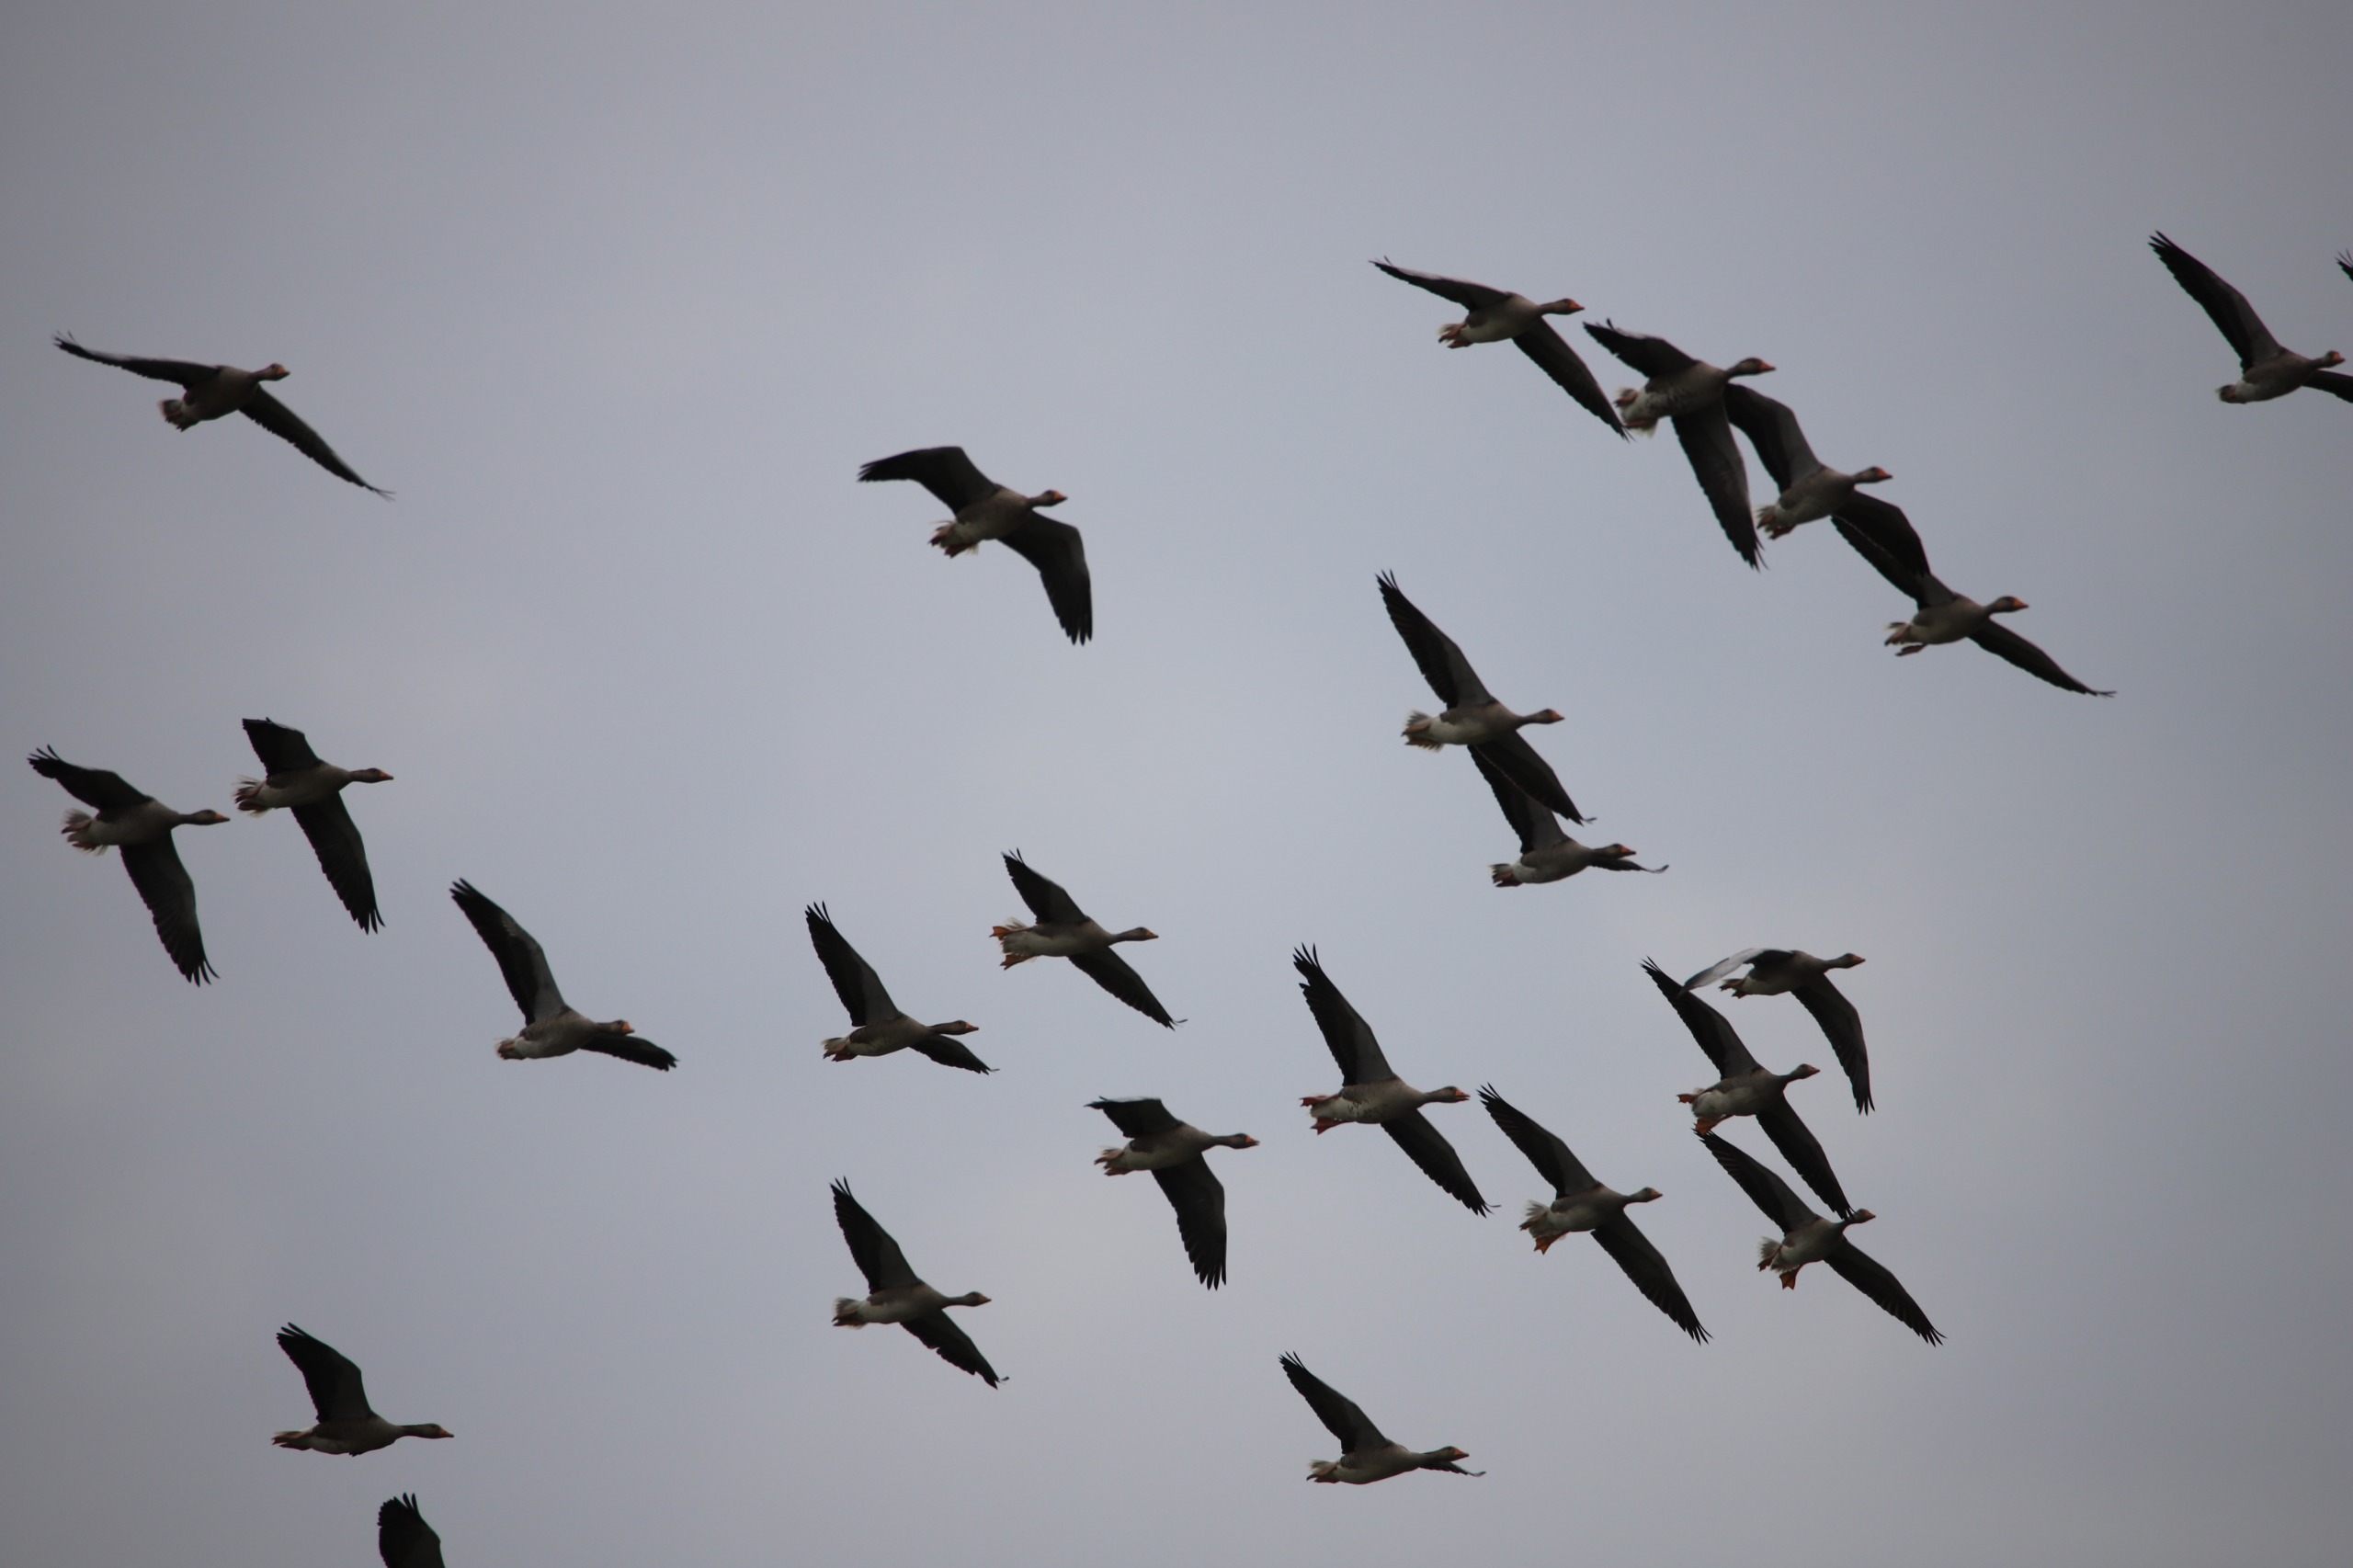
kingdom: Animalia
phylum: Chordata
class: Aves
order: Anseriformes
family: Anatidae
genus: Anser
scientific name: Anser anser
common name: Grågås
